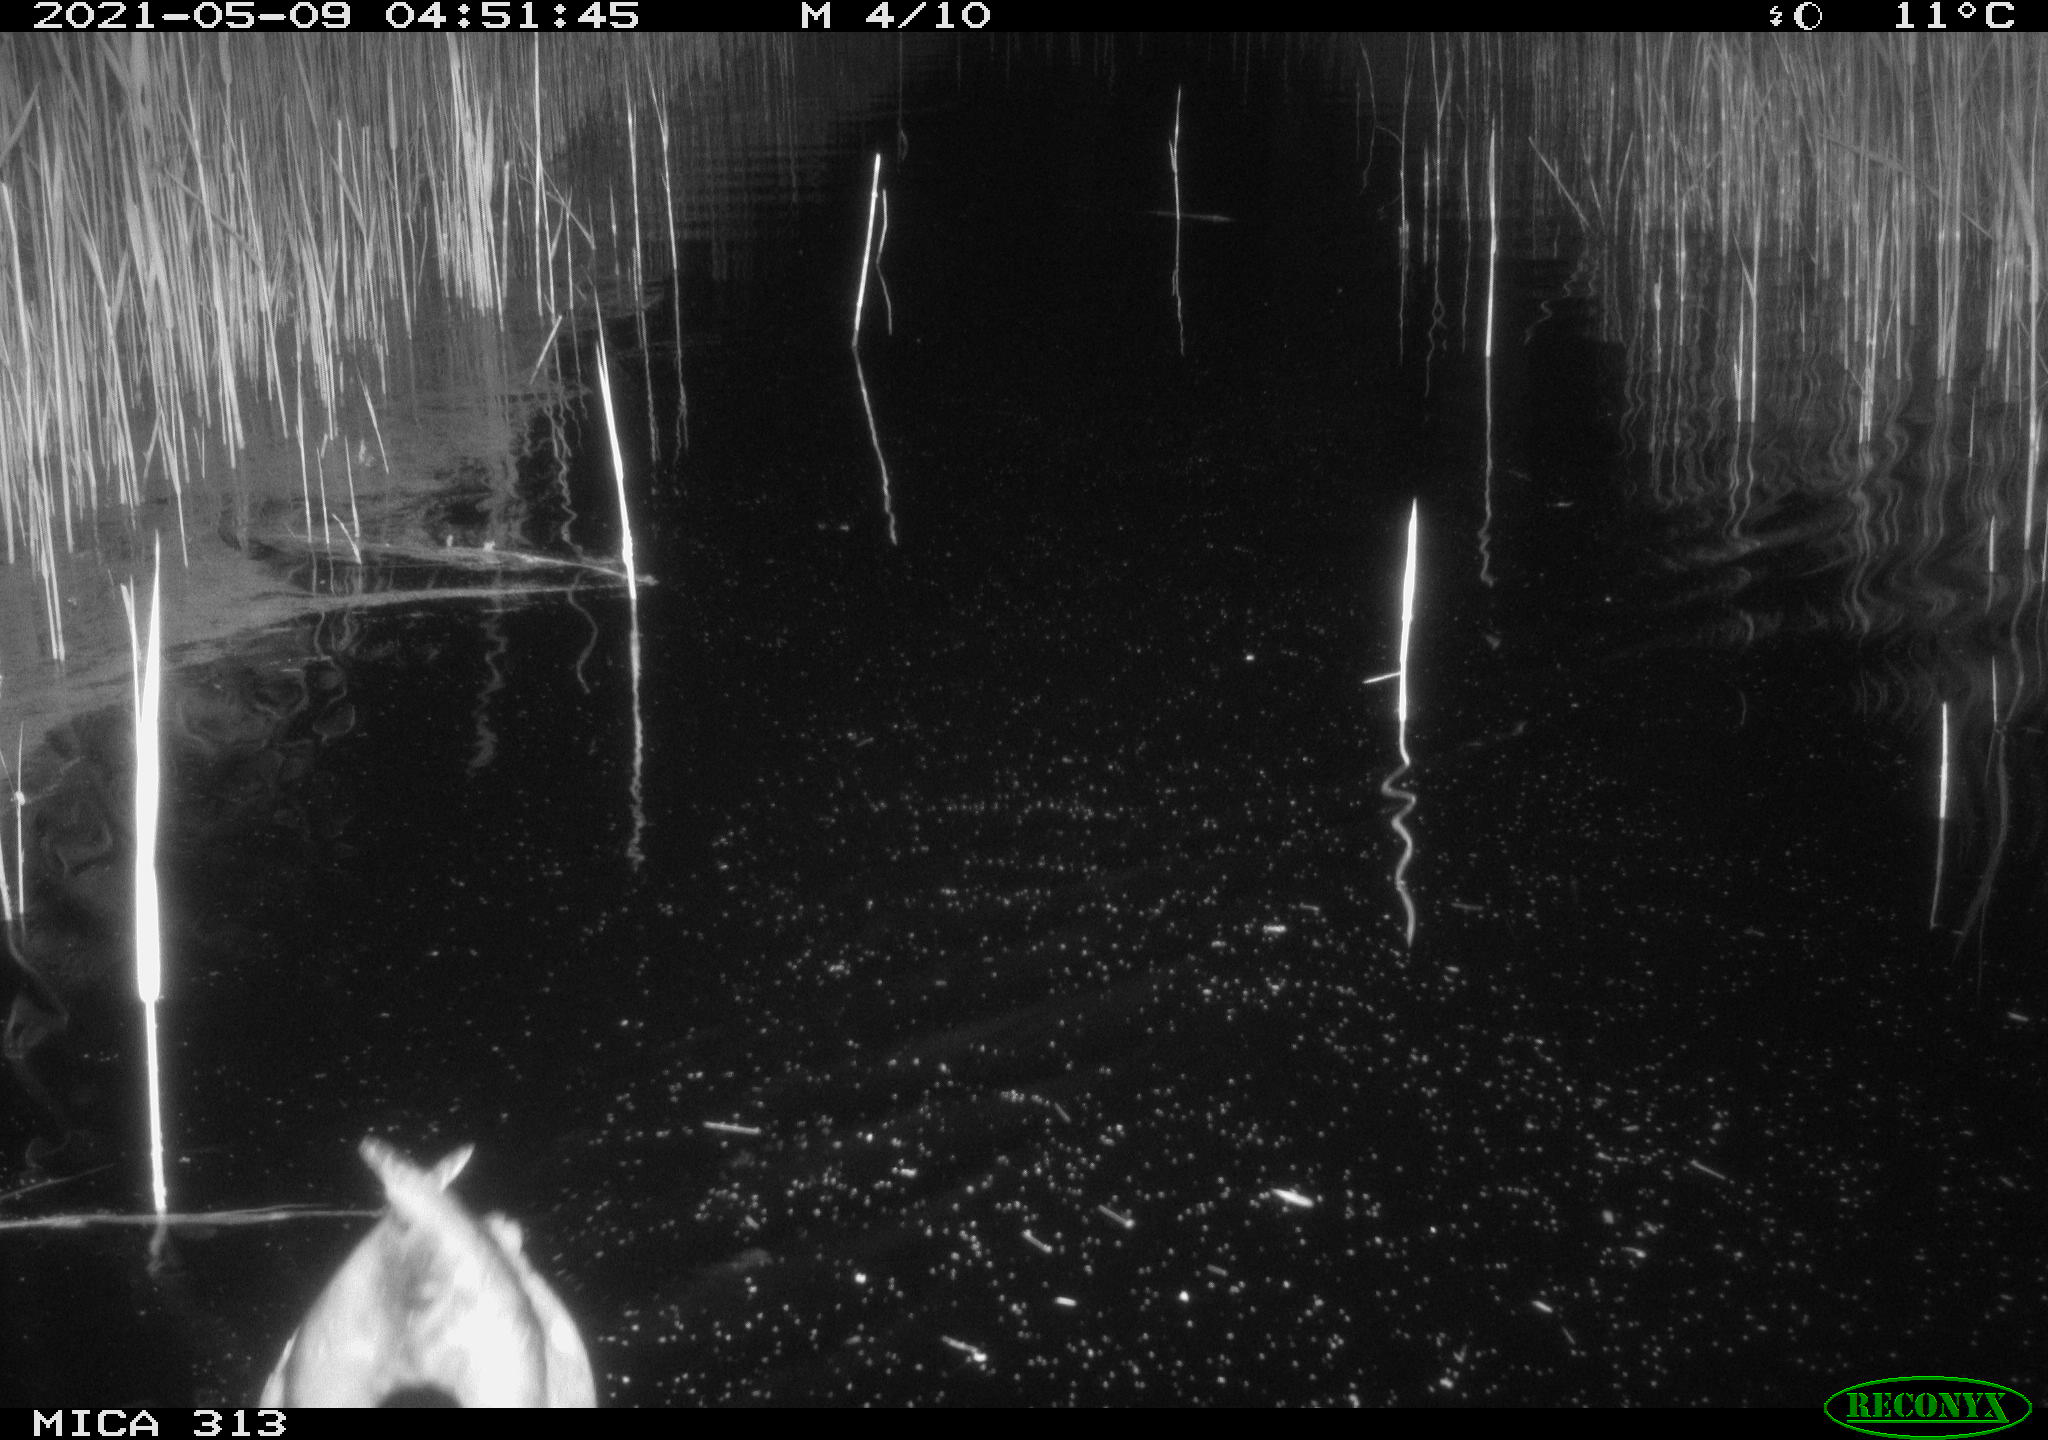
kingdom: Animalia
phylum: Chordata
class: Aves
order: Anseriformes
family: Anatidae
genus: Anas
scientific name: Anas platyrhynchos
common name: Mallard
